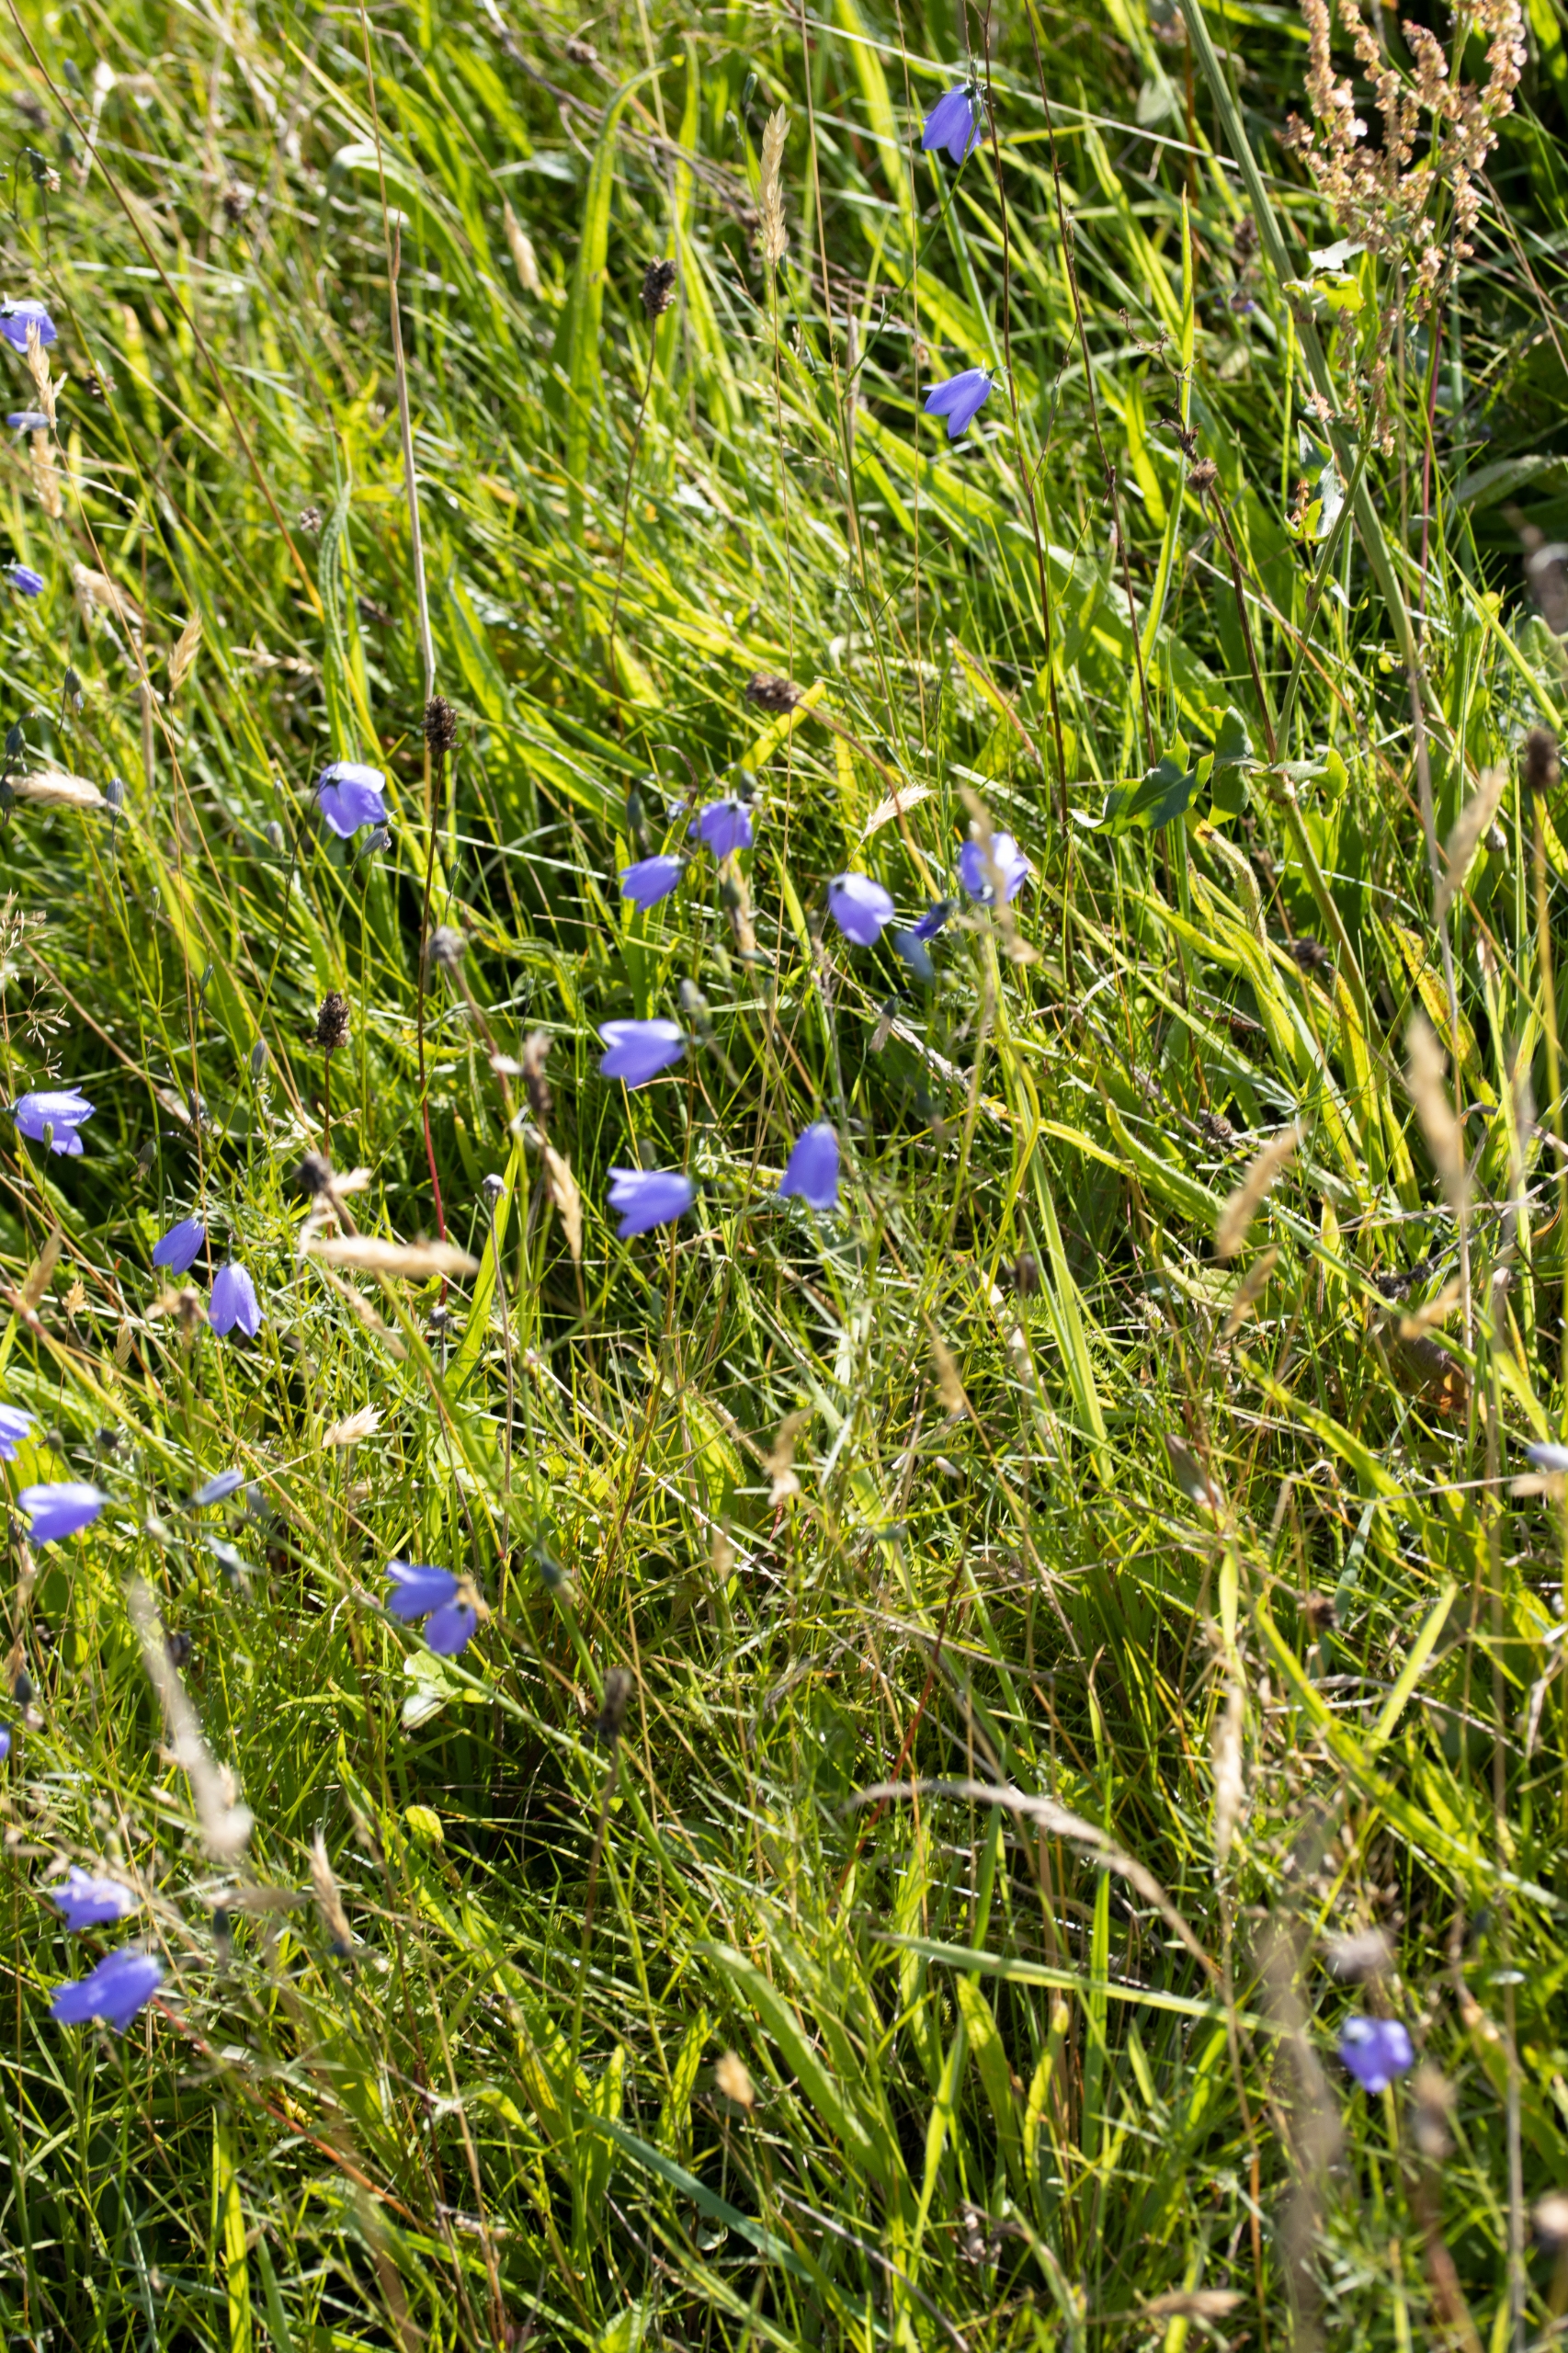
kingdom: Plantae
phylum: Tracheophyta
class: Magnoliopsida
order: Asterales
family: Campanulaceae
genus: Campanula
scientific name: Campanula rotundifolia
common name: Liden klokke
